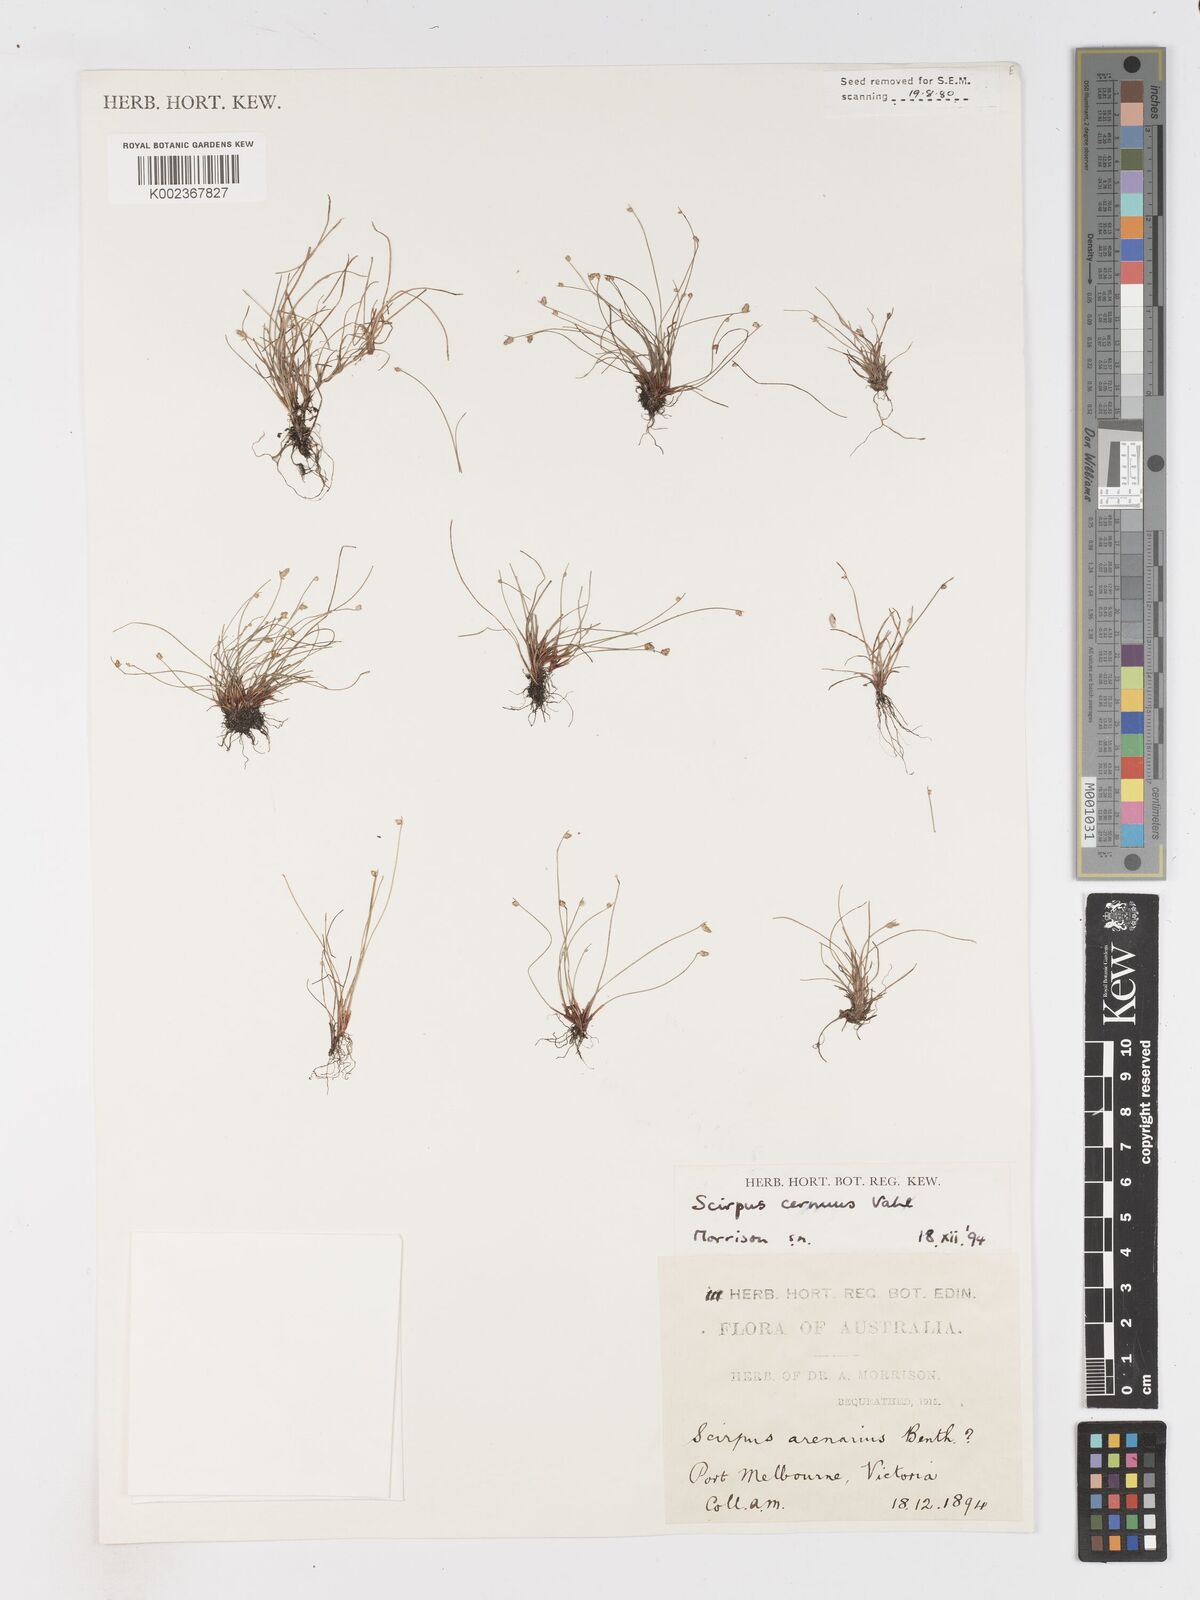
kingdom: Plantae
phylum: Tracheophyta
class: Liliopsida
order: Poales
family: Cyperaceae
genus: Isolepis
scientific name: Isolepis cernua
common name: Slender club-rush
